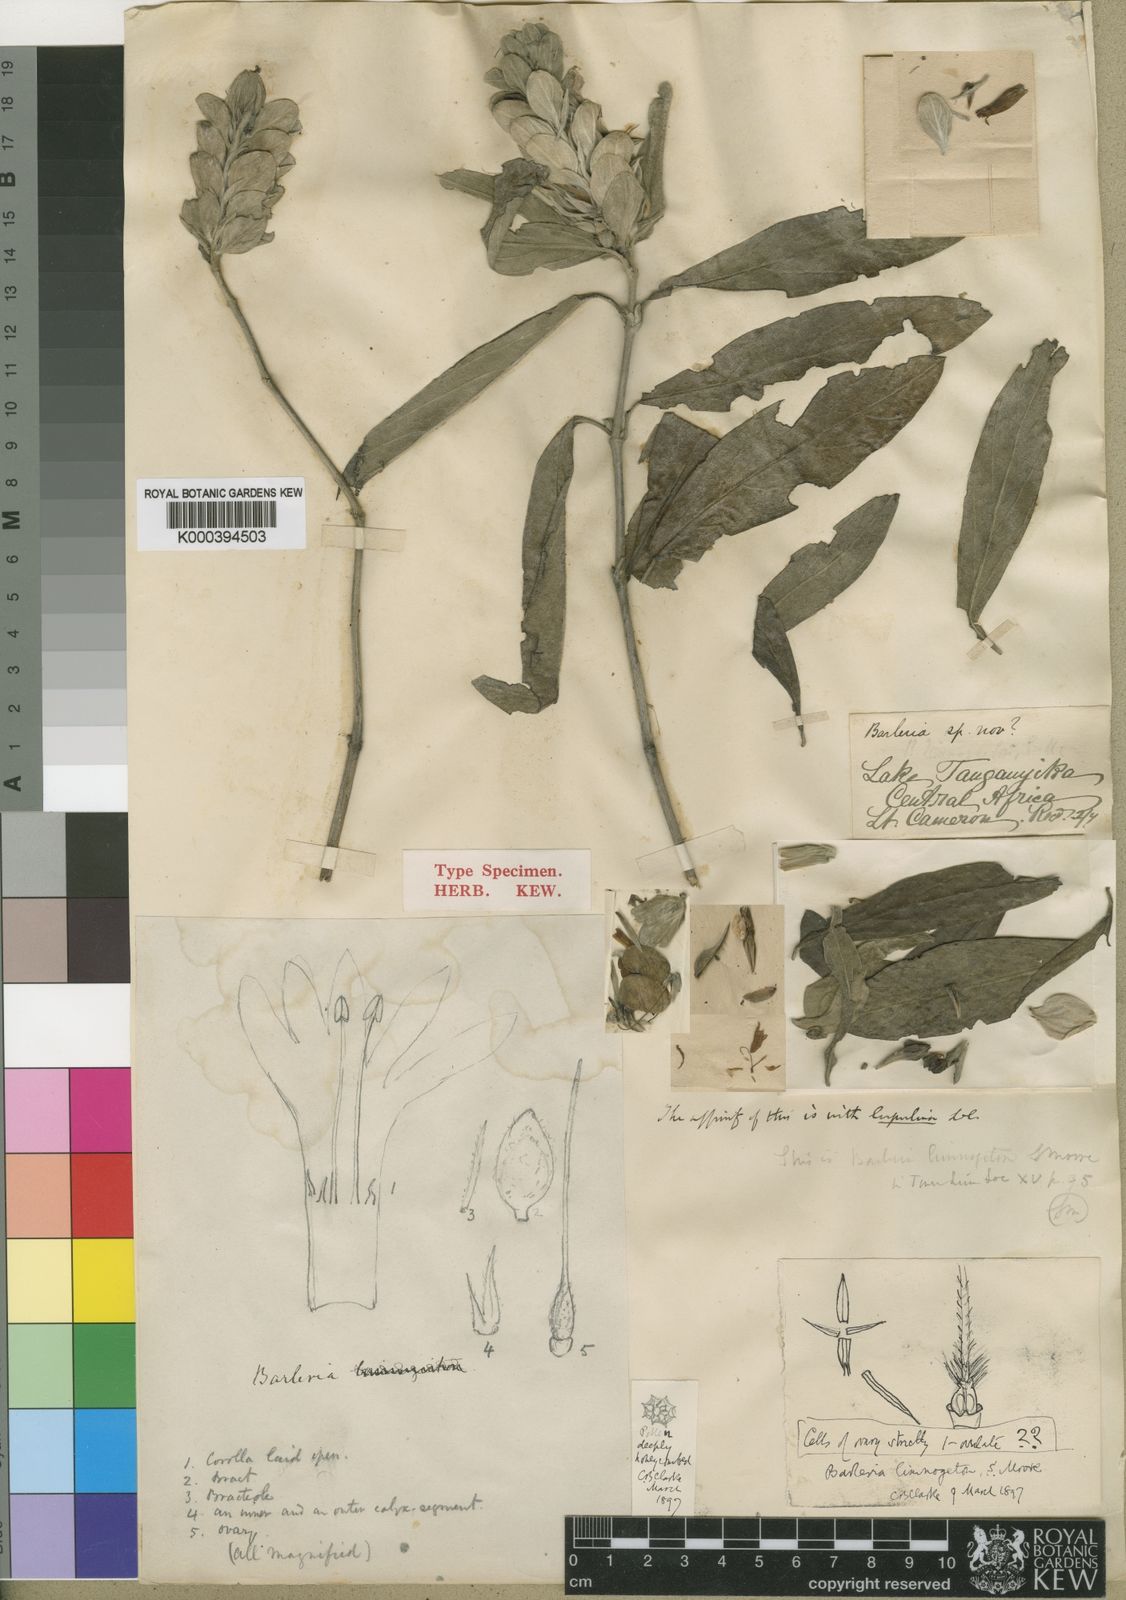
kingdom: Plantae
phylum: Tracheophyta
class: Magnoliopsida
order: Lamiales
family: Acanthaceae
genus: Barleria
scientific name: Barleria limnogeton
